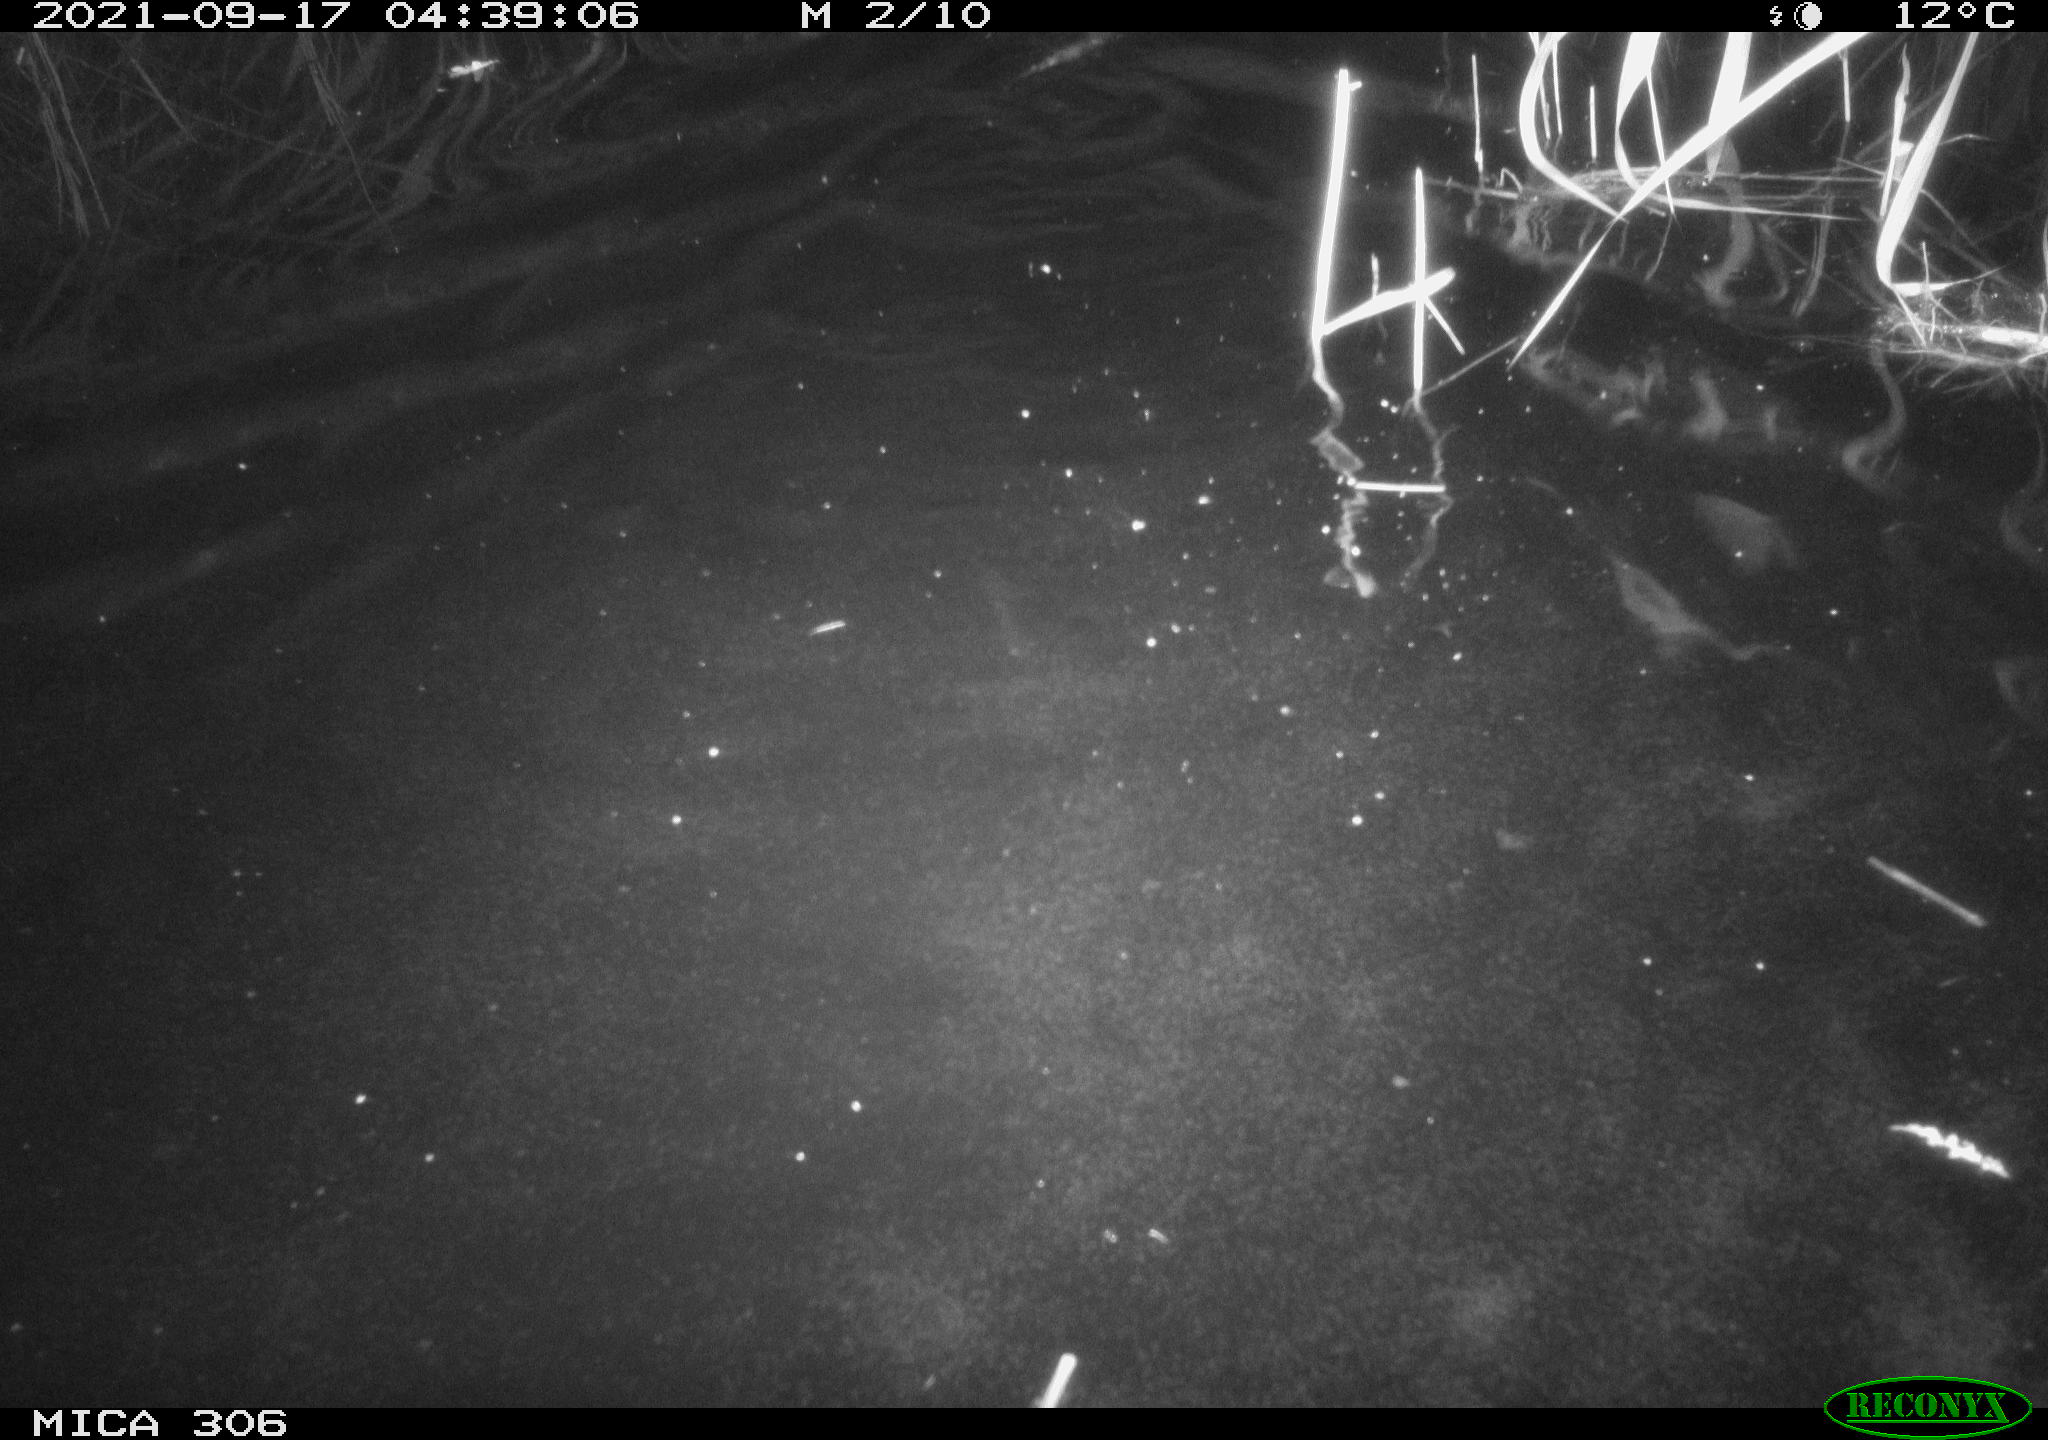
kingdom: Animalia
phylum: Chordata
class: Mammalia
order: Rodentia
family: Cricetidae
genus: Ondatra
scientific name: Ondatra zibethicus
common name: Muskrat
